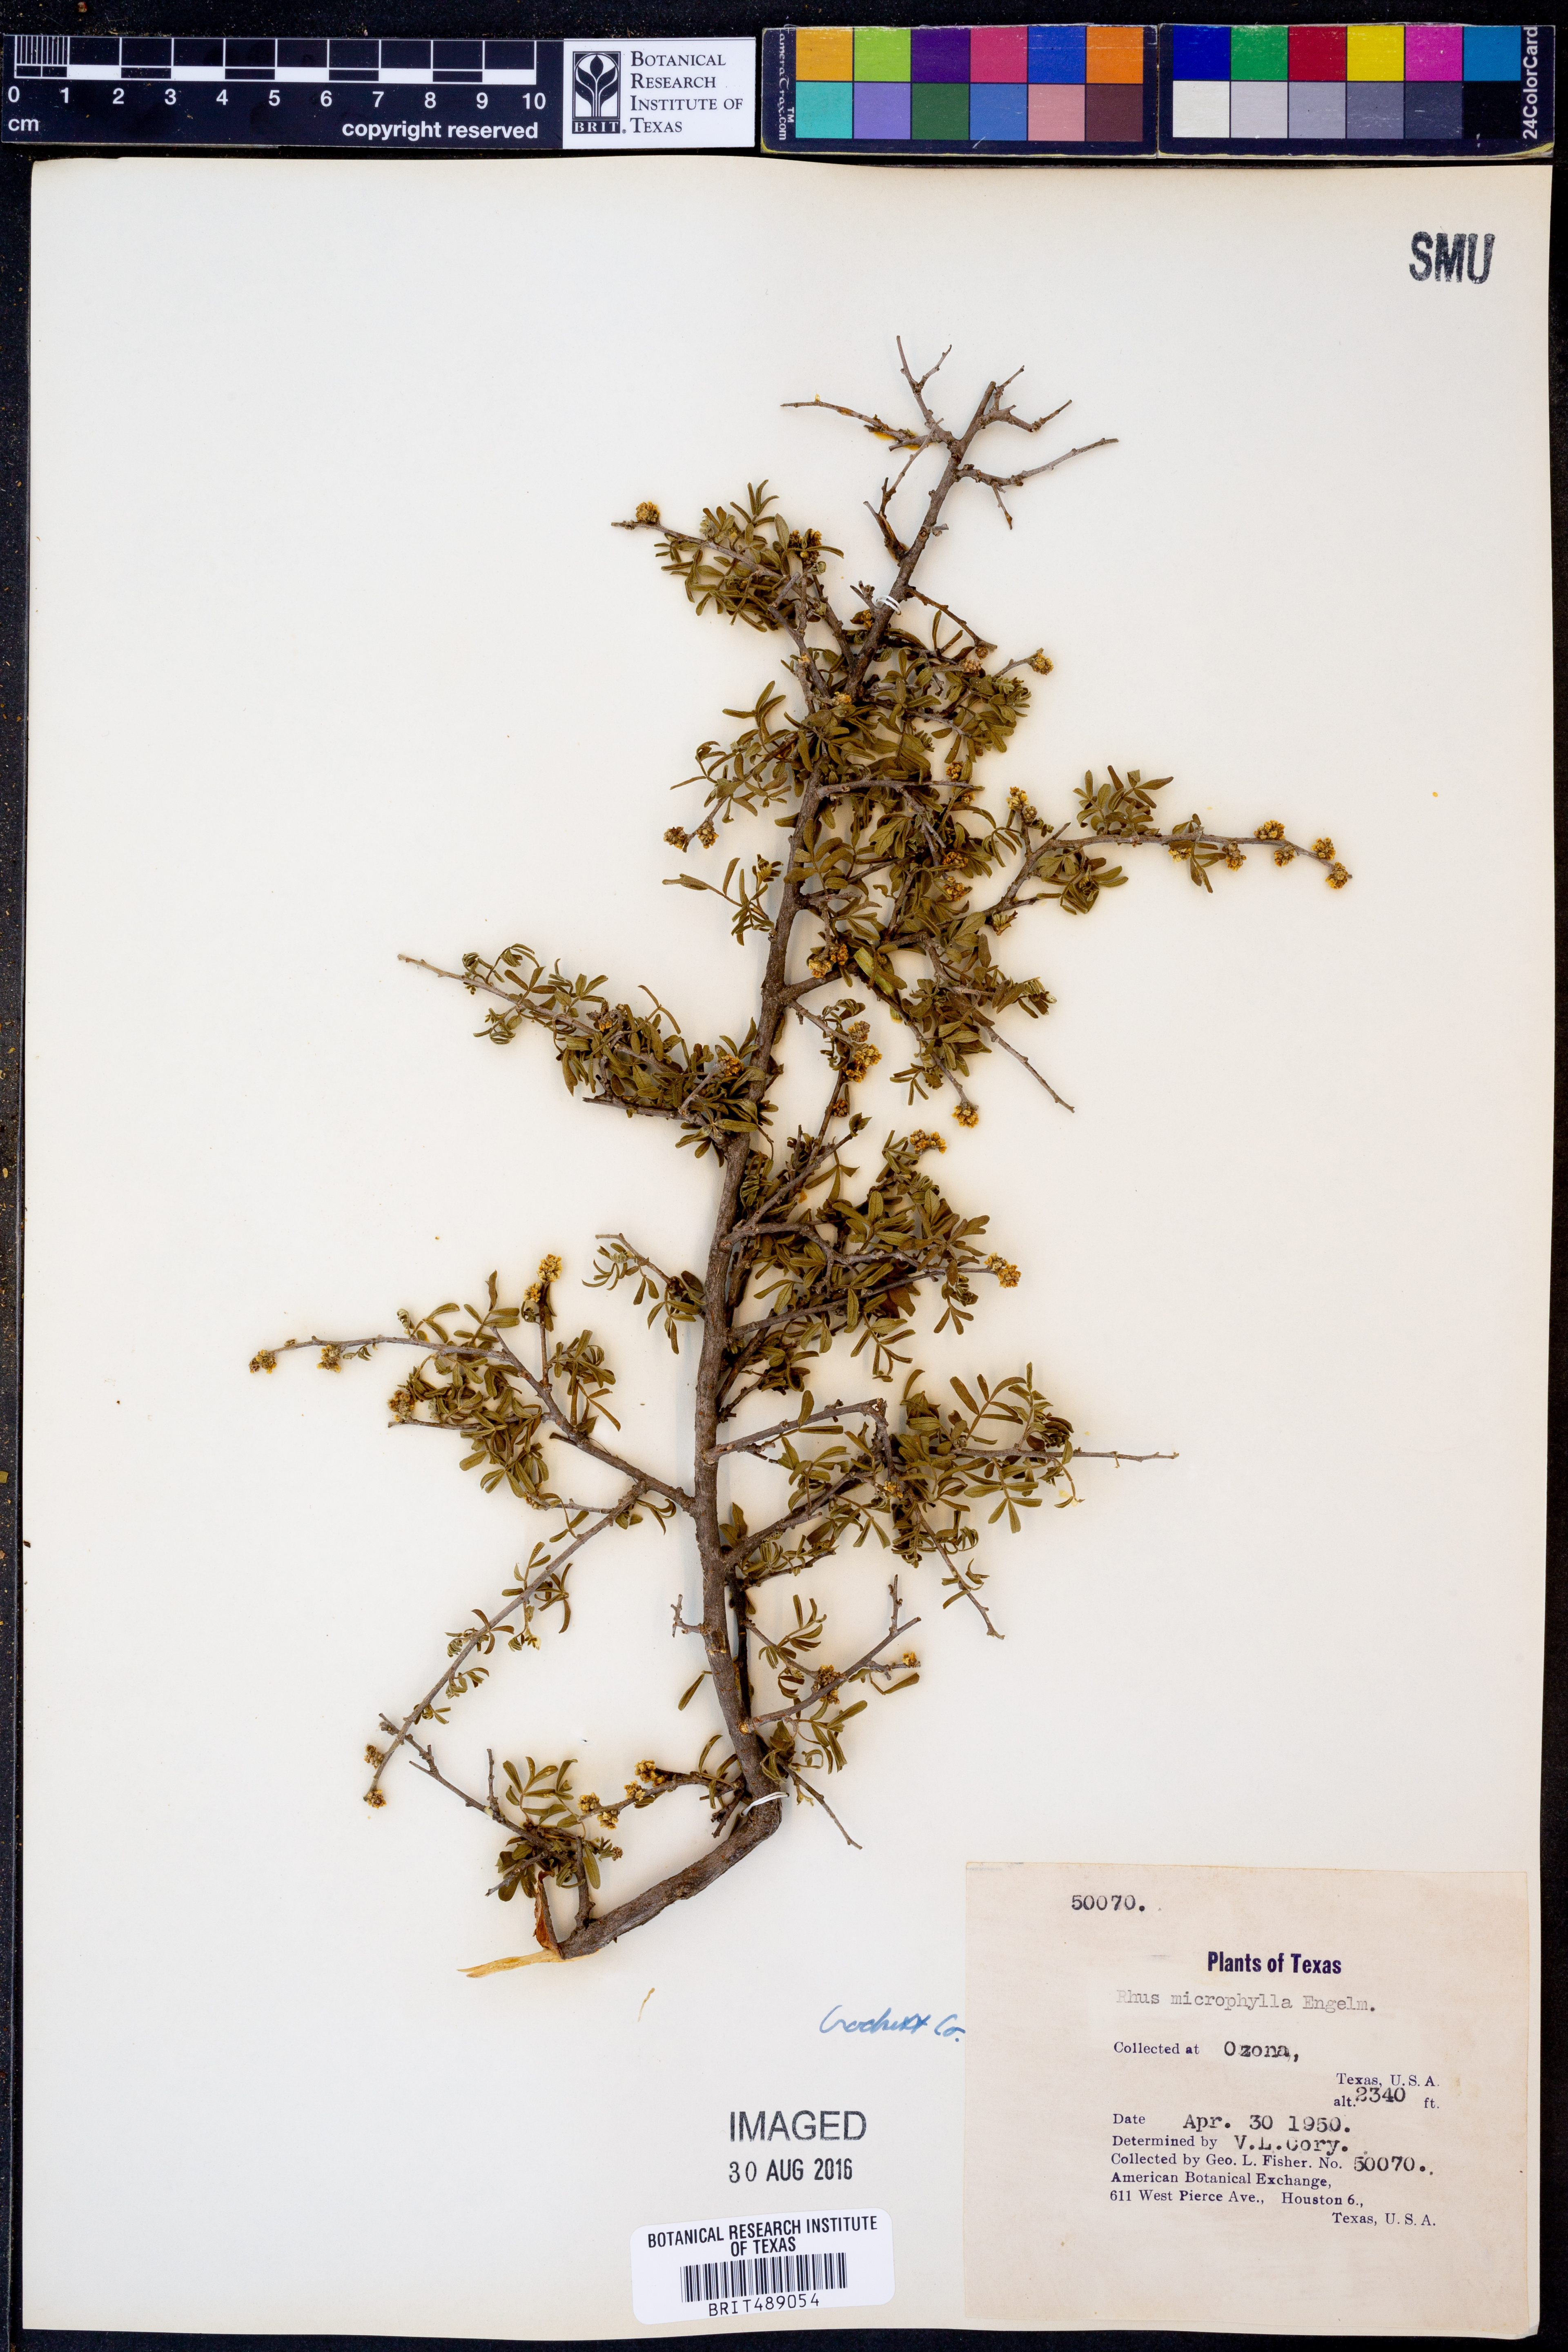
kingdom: Plantae
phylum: Tracheophyta
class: Magnoliopsida
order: Sapindales
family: Anacardiaceae
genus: Rhus
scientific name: Rhus microphylla
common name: Desert sumac
